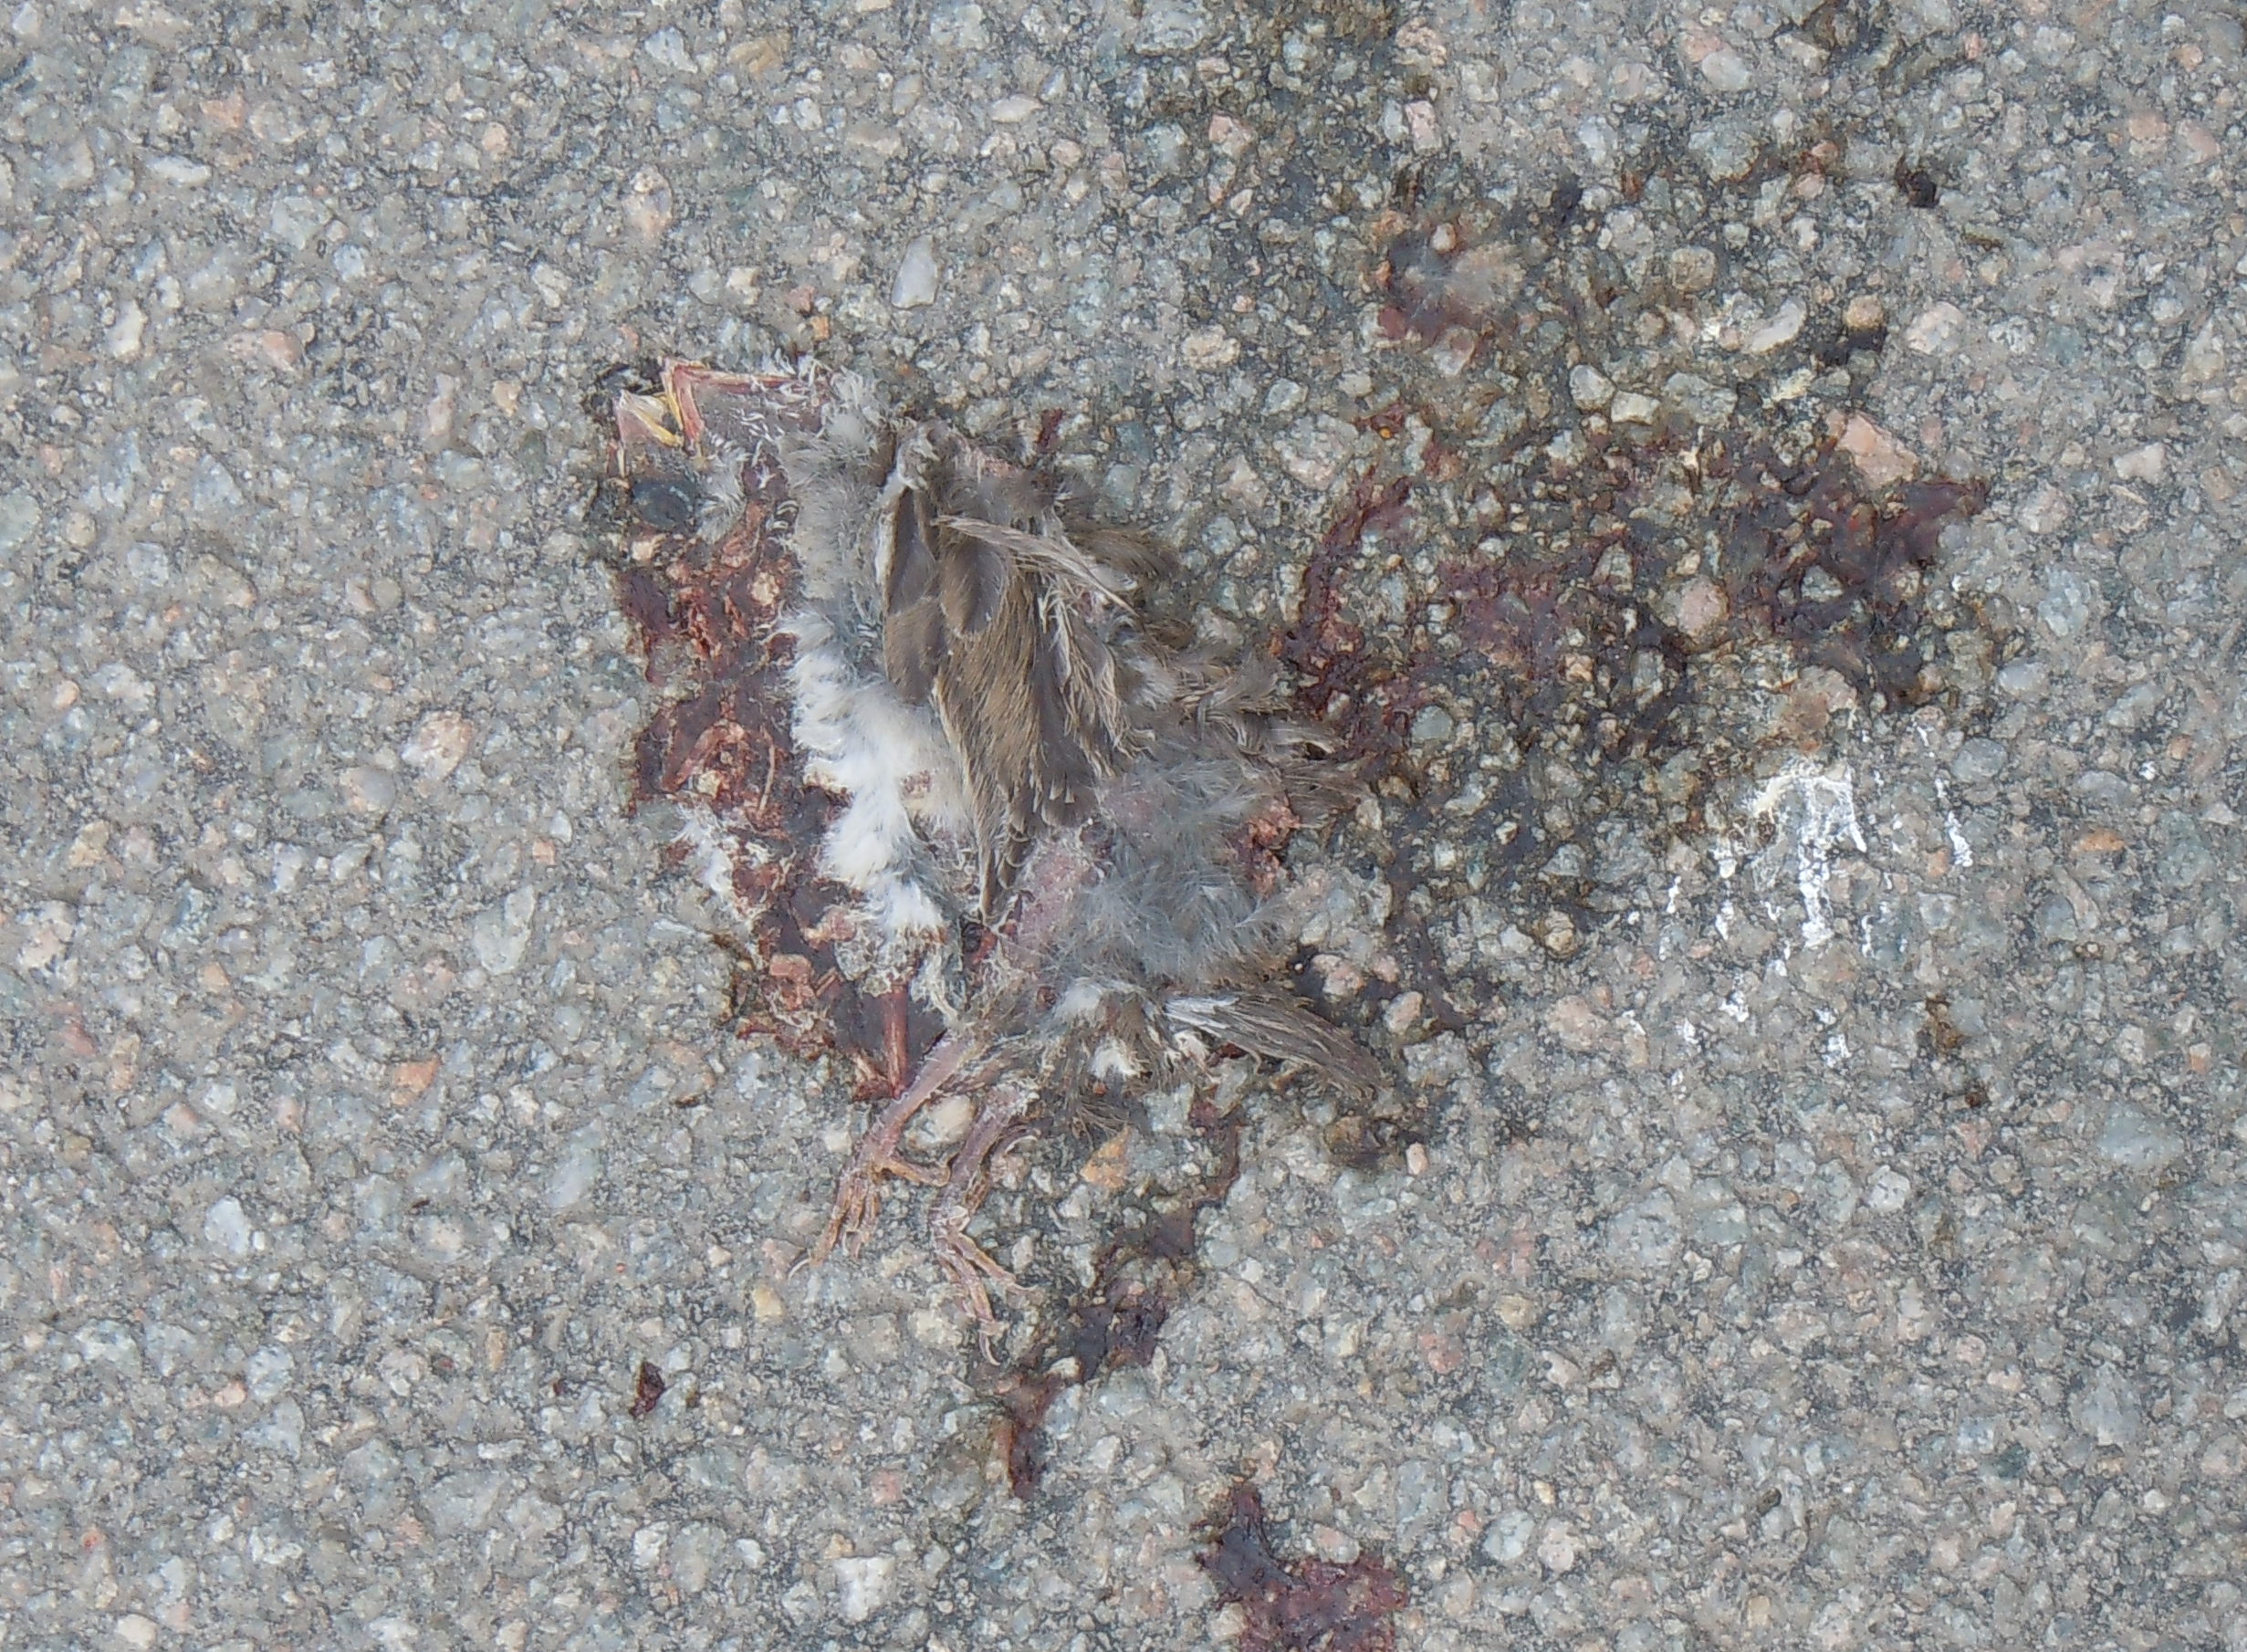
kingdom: Animalia
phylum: Chordata
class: Aves
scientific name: Aves
